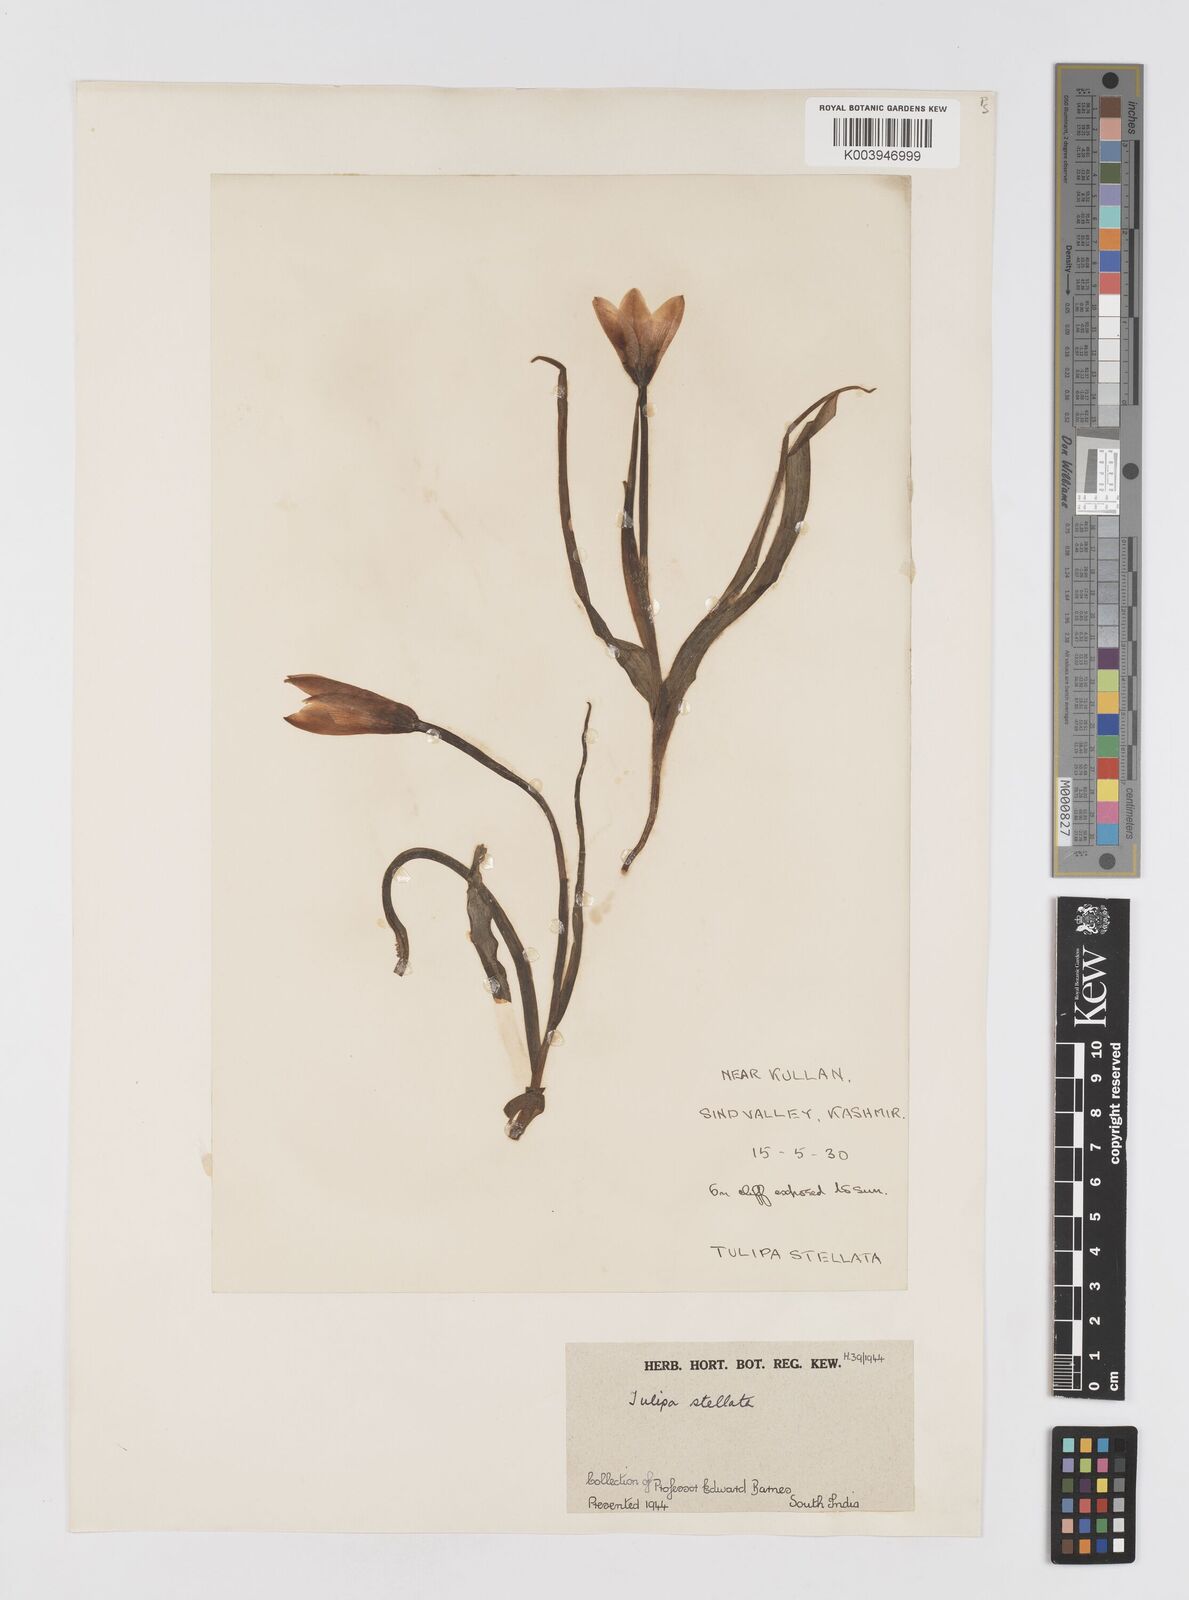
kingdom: Plantae
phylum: Tracheophyta
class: Liliopsida
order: Liliales
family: Liliaceae
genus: Tulipa
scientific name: Tulipa clusiana
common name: Lady tulip
